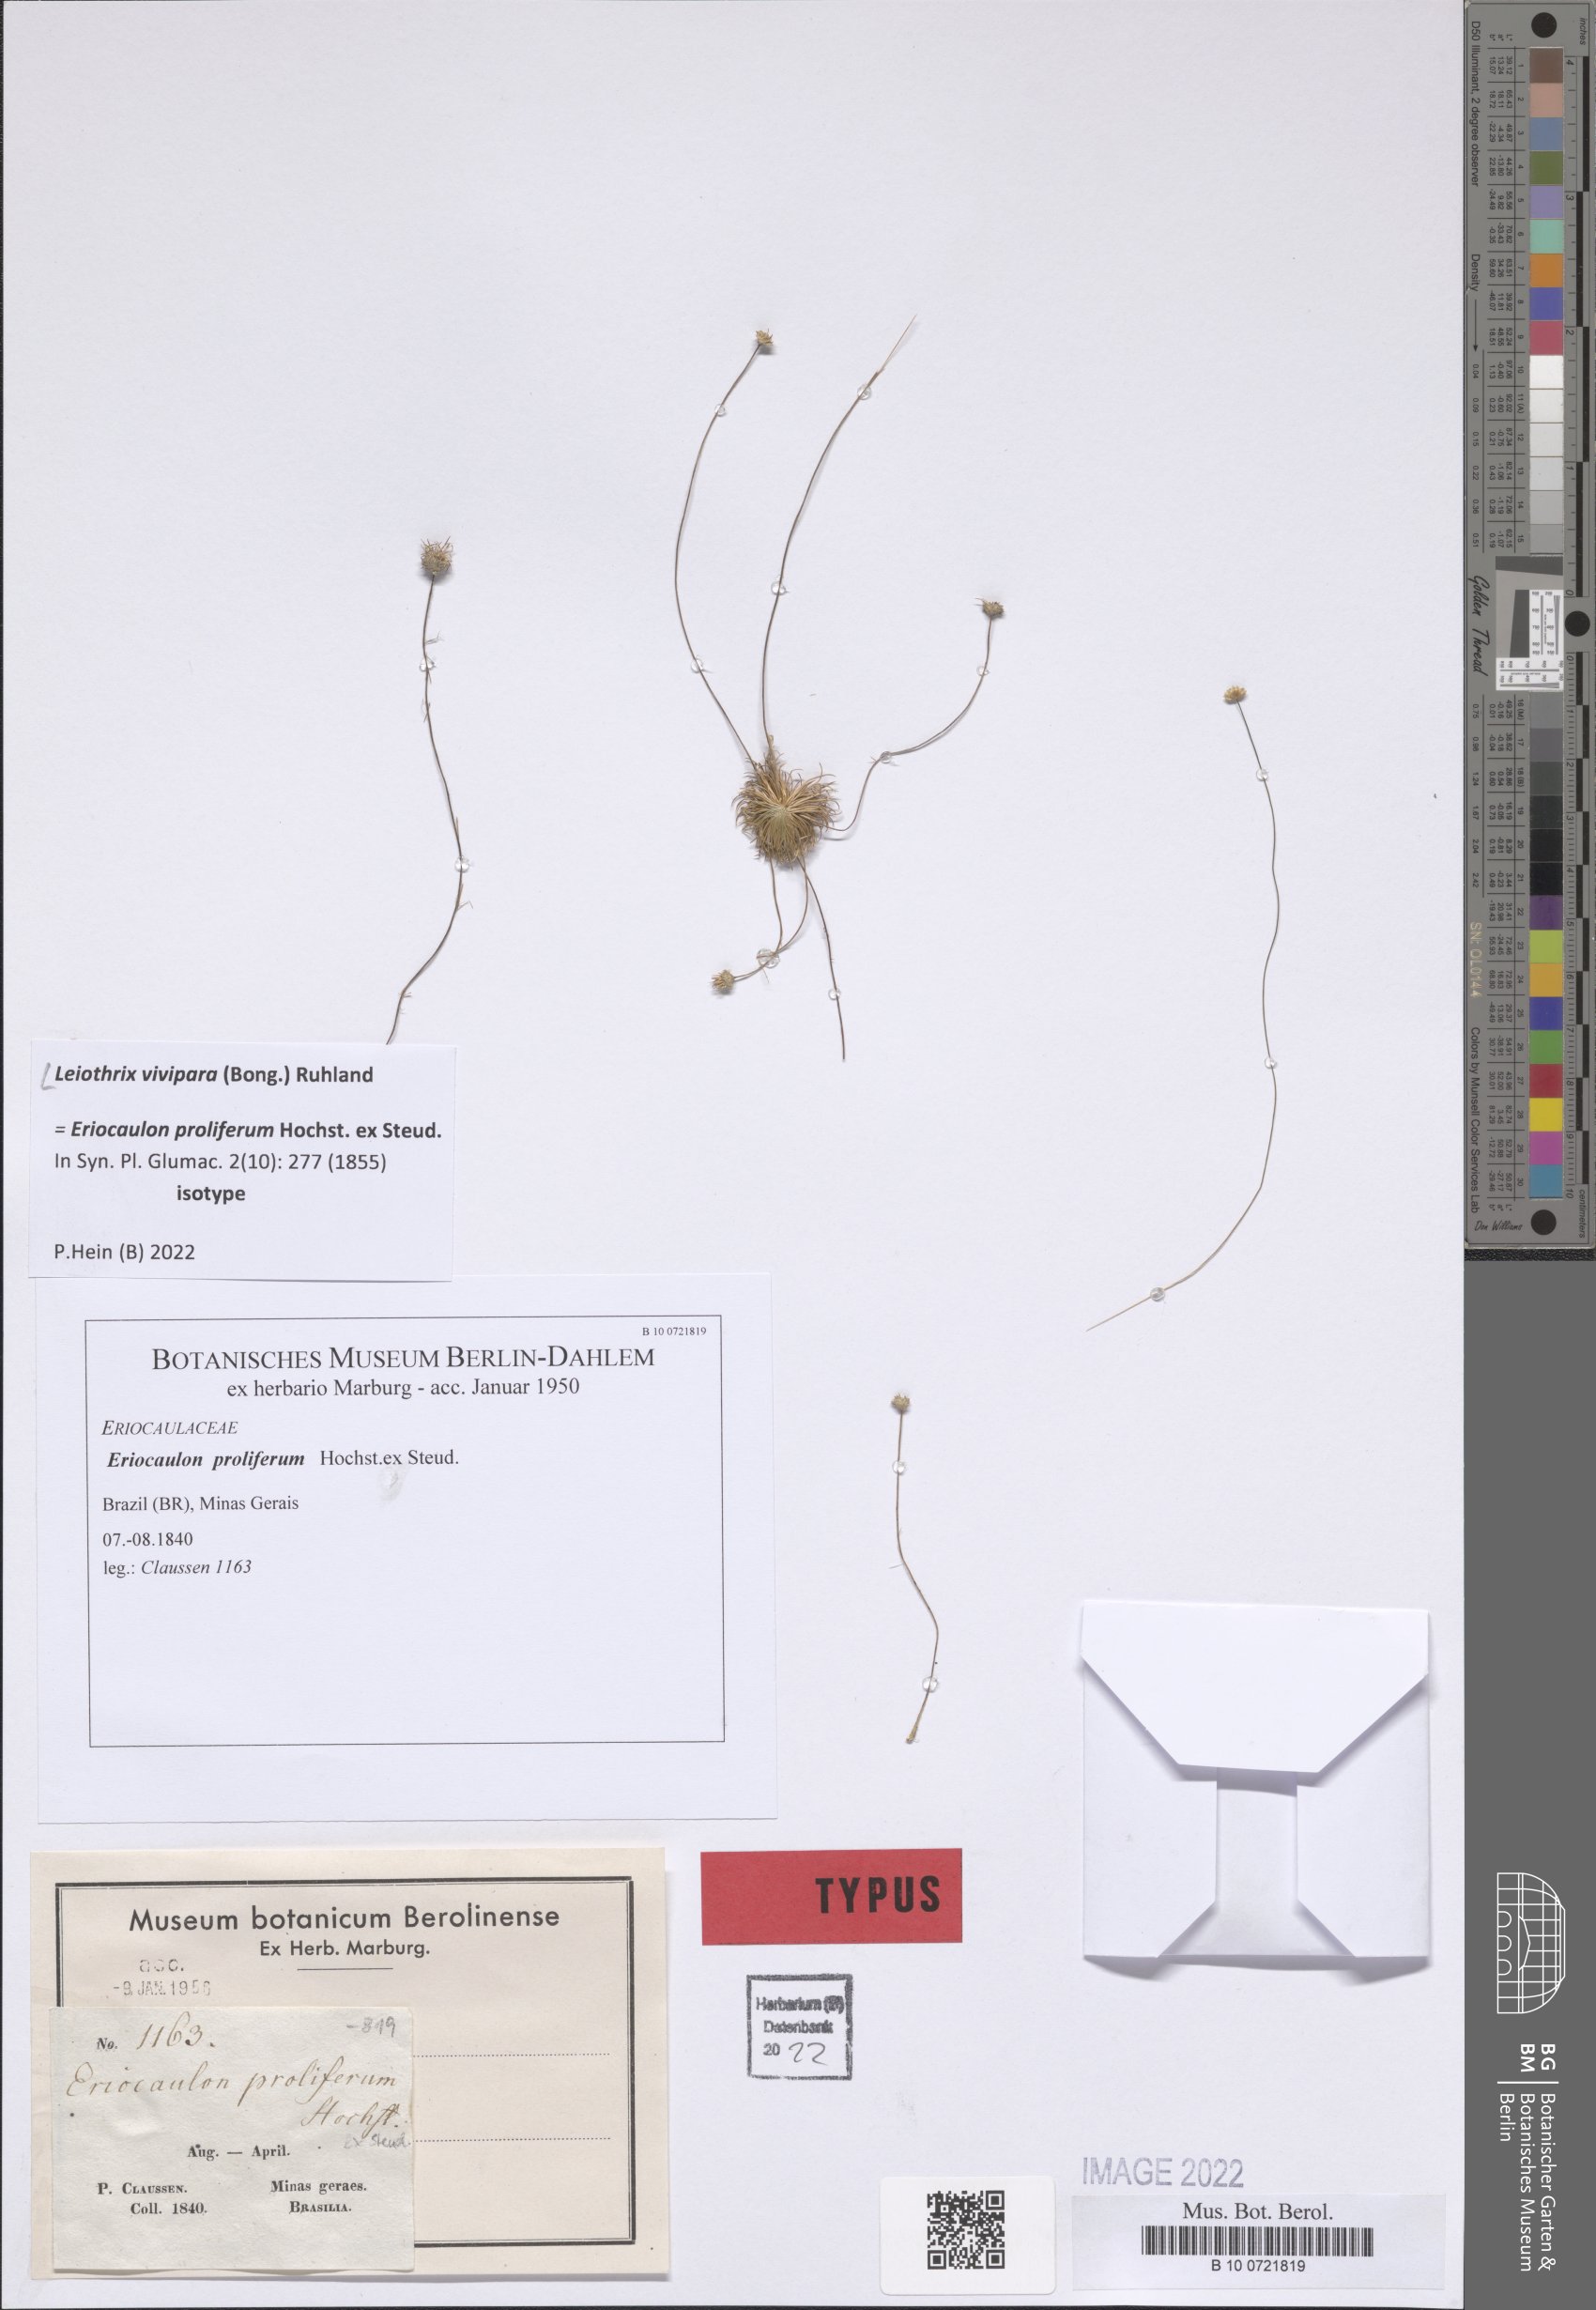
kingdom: Plantae
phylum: Tracheophyta
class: Liliopsida
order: Poales
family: Eriocaulaceae
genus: Leiothrix
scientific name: Leiothrix vivipara
